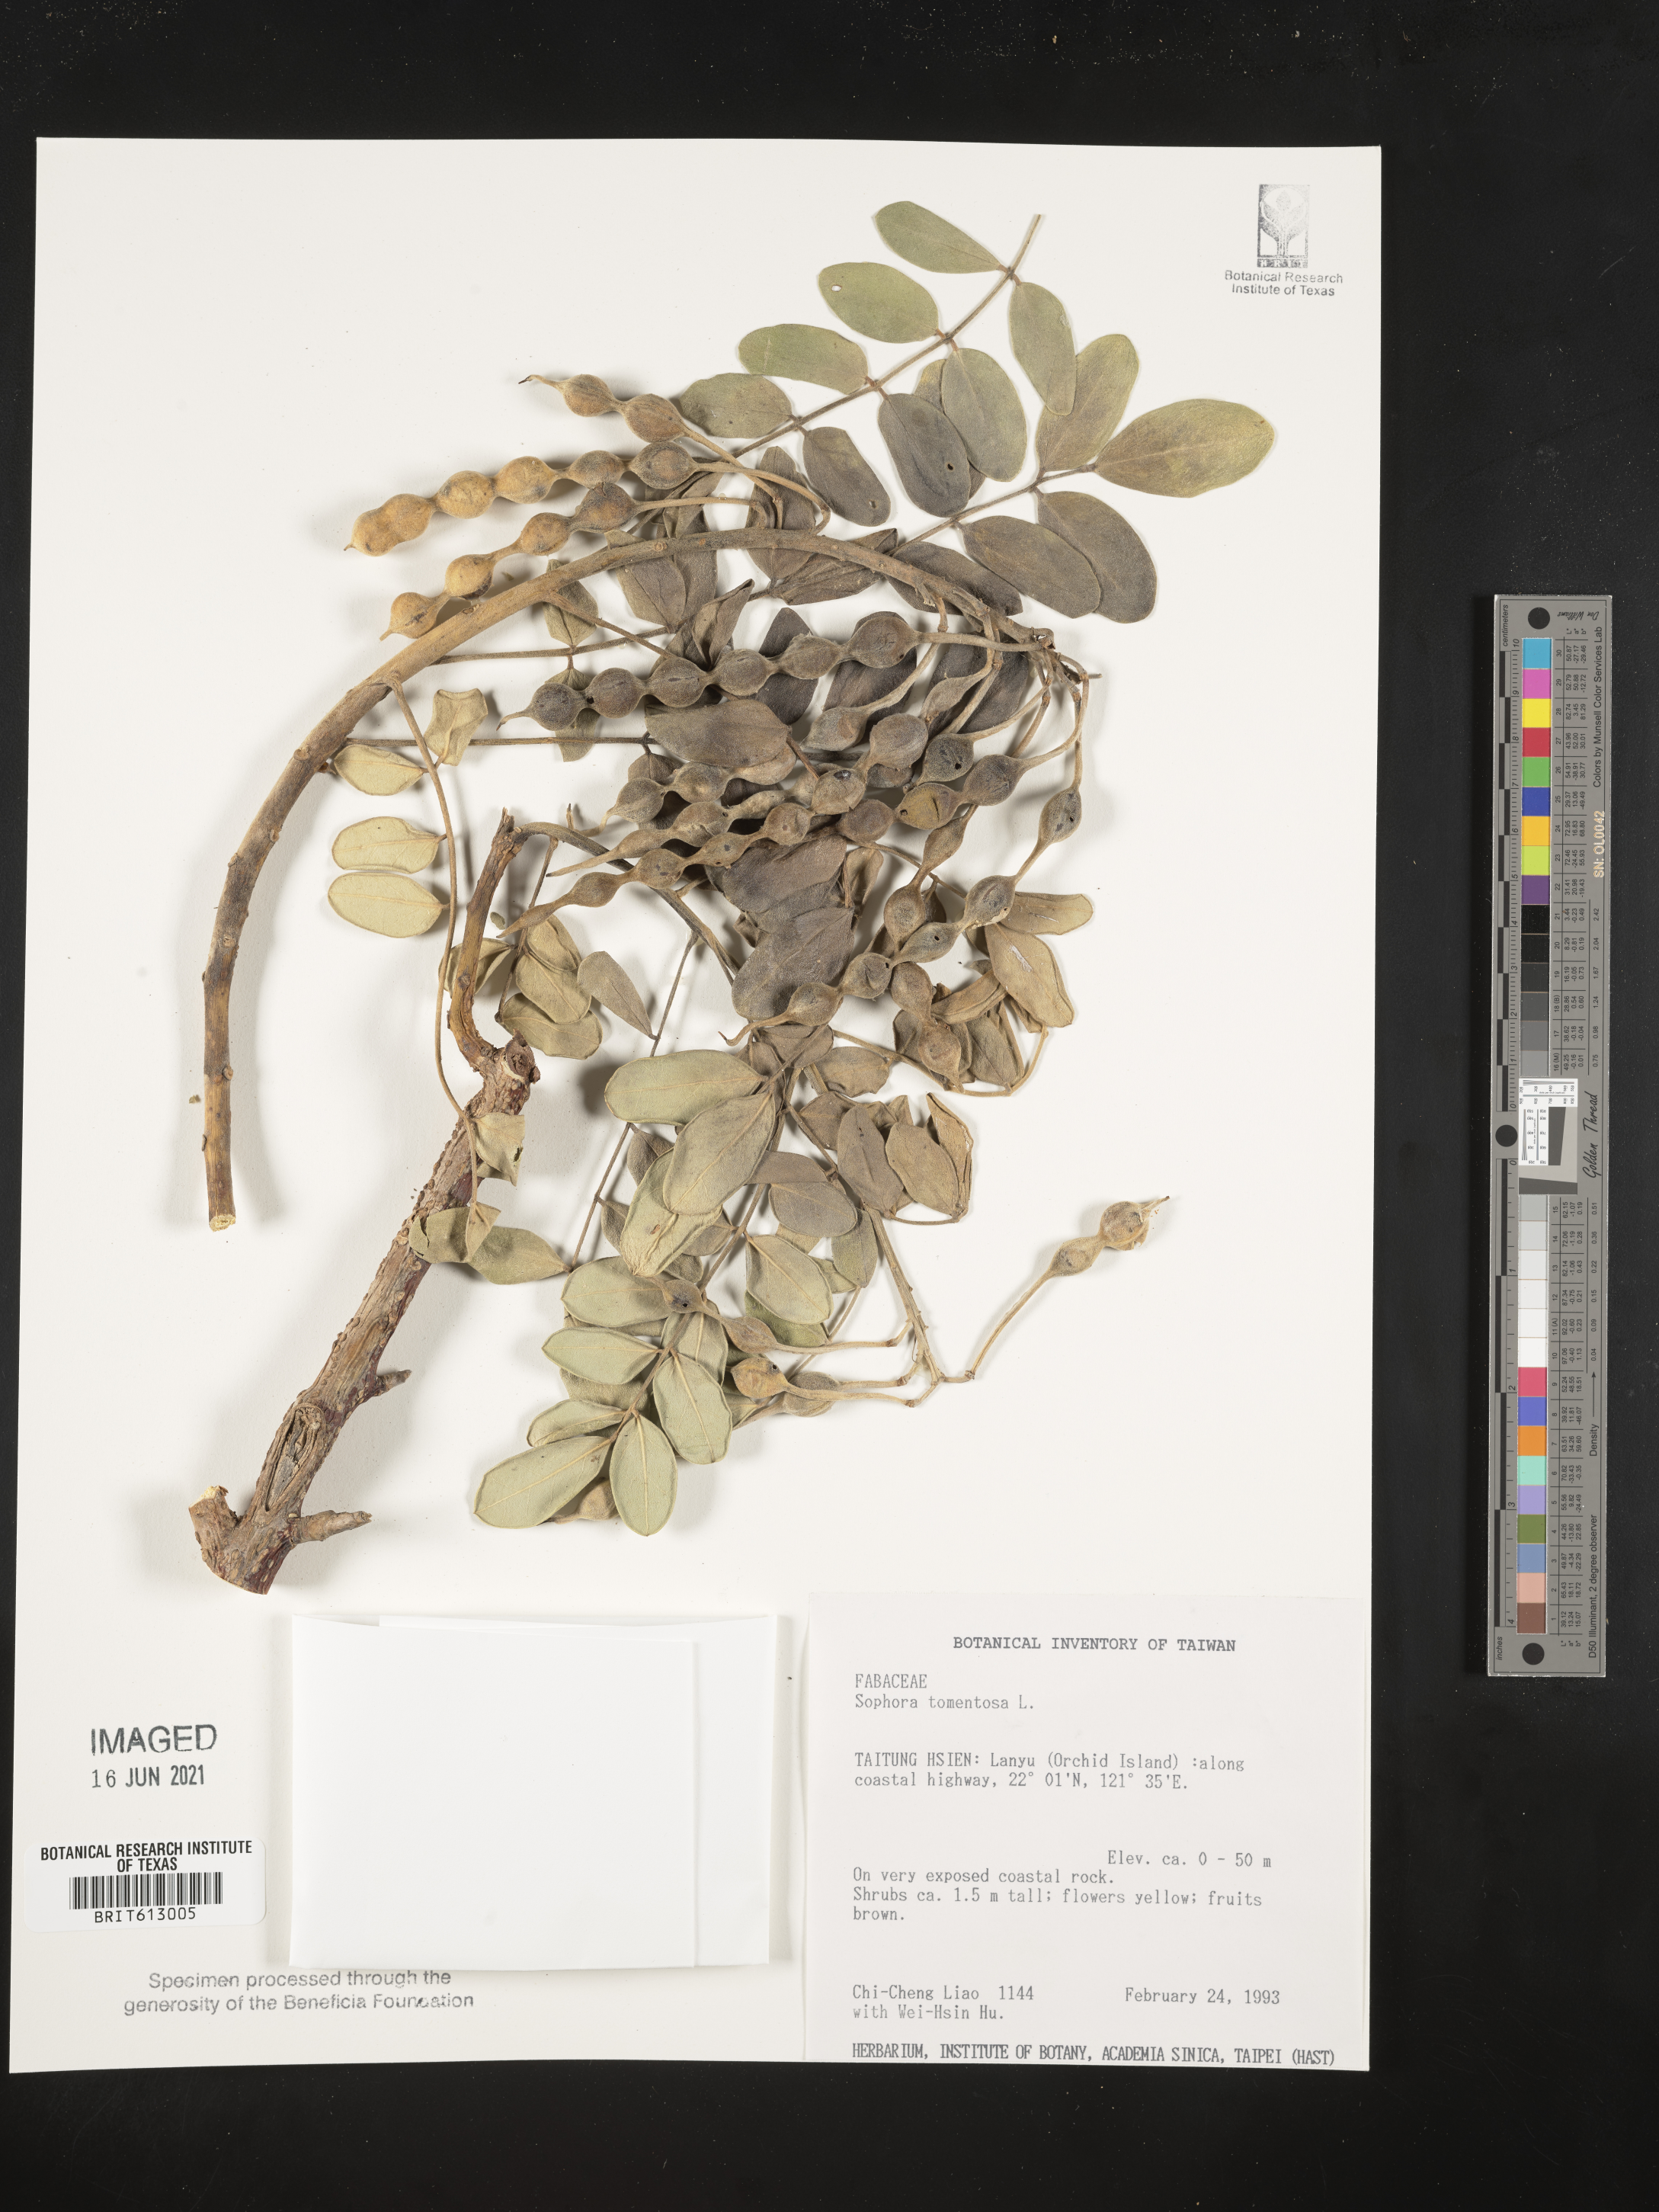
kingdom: Plantae
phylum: Tracheophyta
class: Magnoliopsida
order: Fabales
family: Fabaceae
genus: Sophora
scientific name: Sophora tomentosa
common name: Yellow necklacepod
